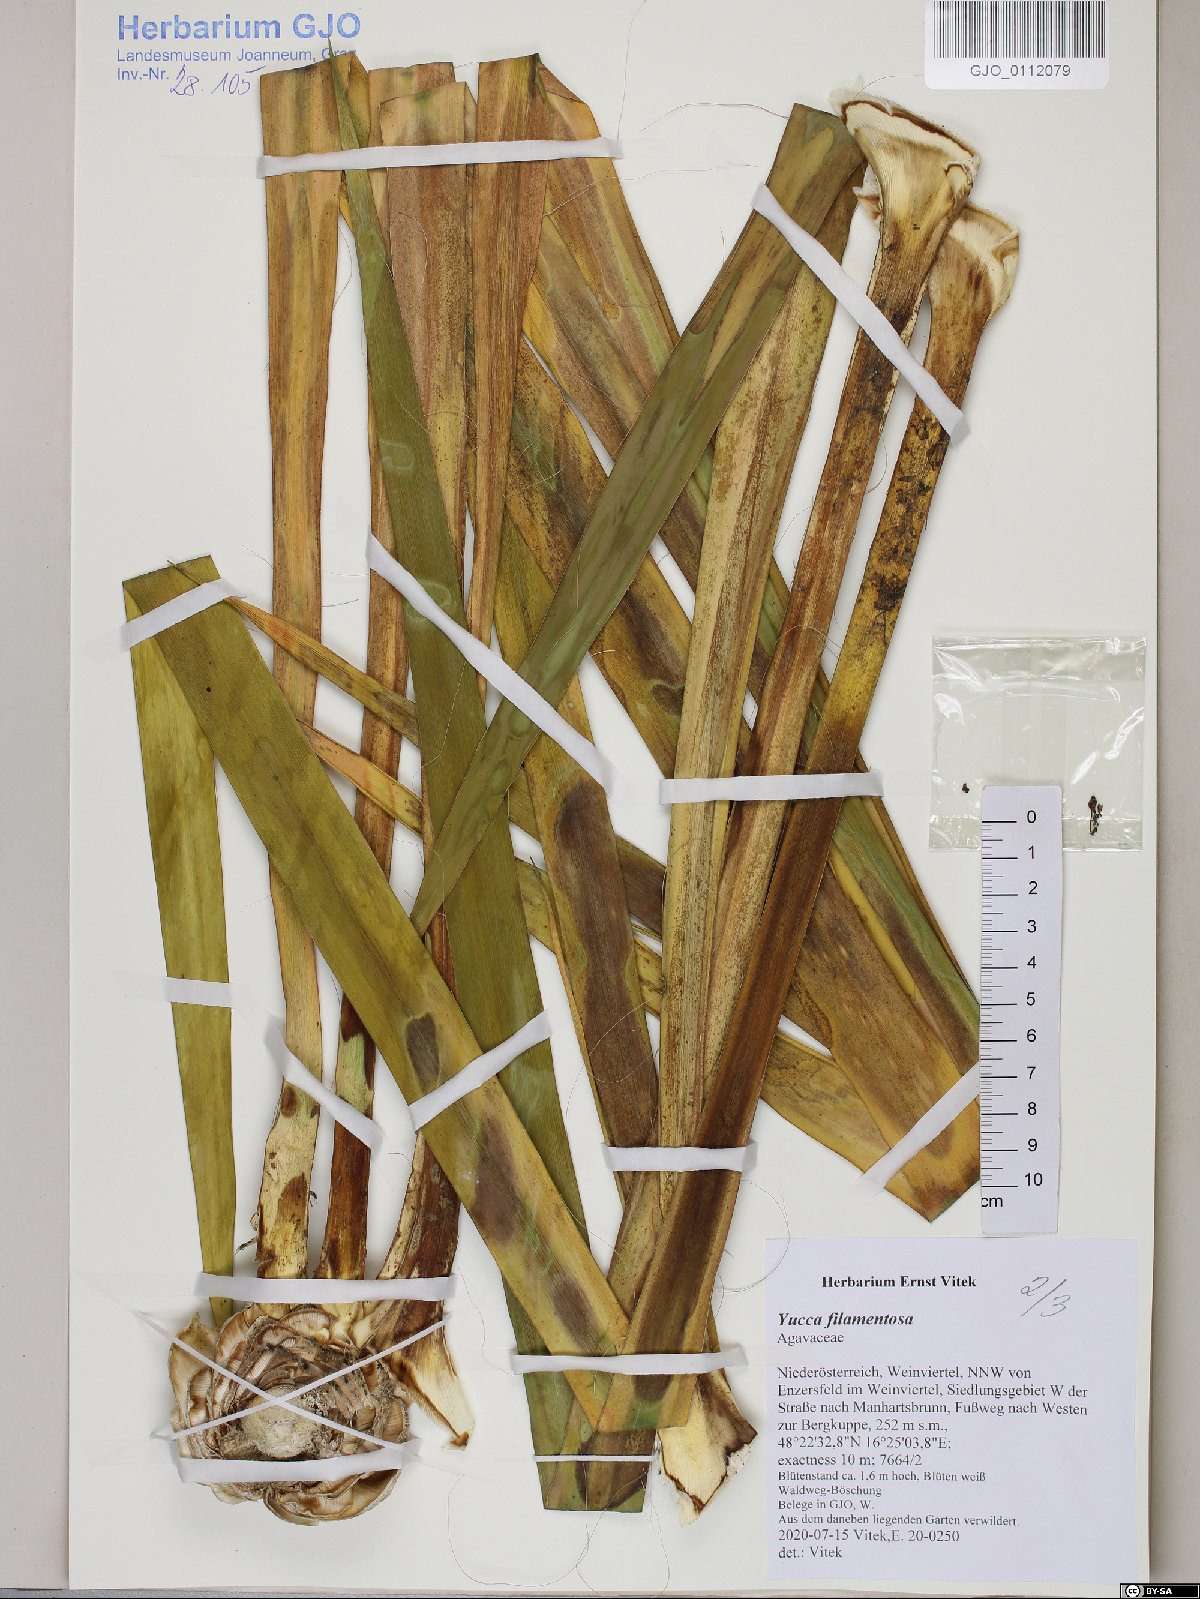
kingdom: Plantae
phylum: Tracheophyta
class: Liliopsida
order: Asparagales
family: Asparagaceae
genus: Yucca
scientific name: Yucca filamentosa
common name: Adam's-needle
